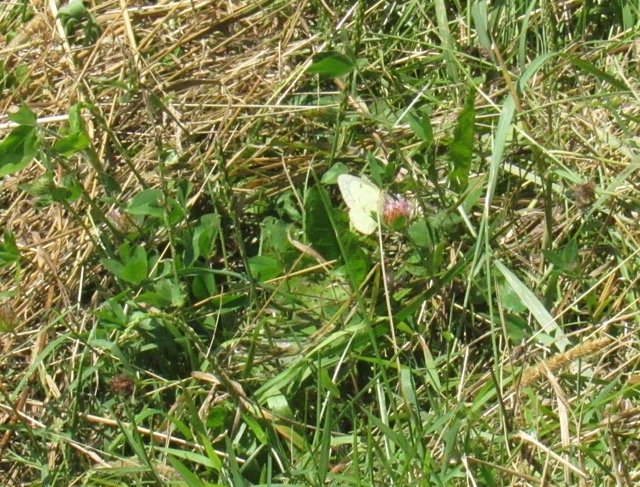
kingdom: Animalia
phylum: Arthropoda
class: Insecta
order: Lepidoptera
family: Pieridae
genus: Colias
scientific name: Colias philodice
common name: Clouded Sulphur
